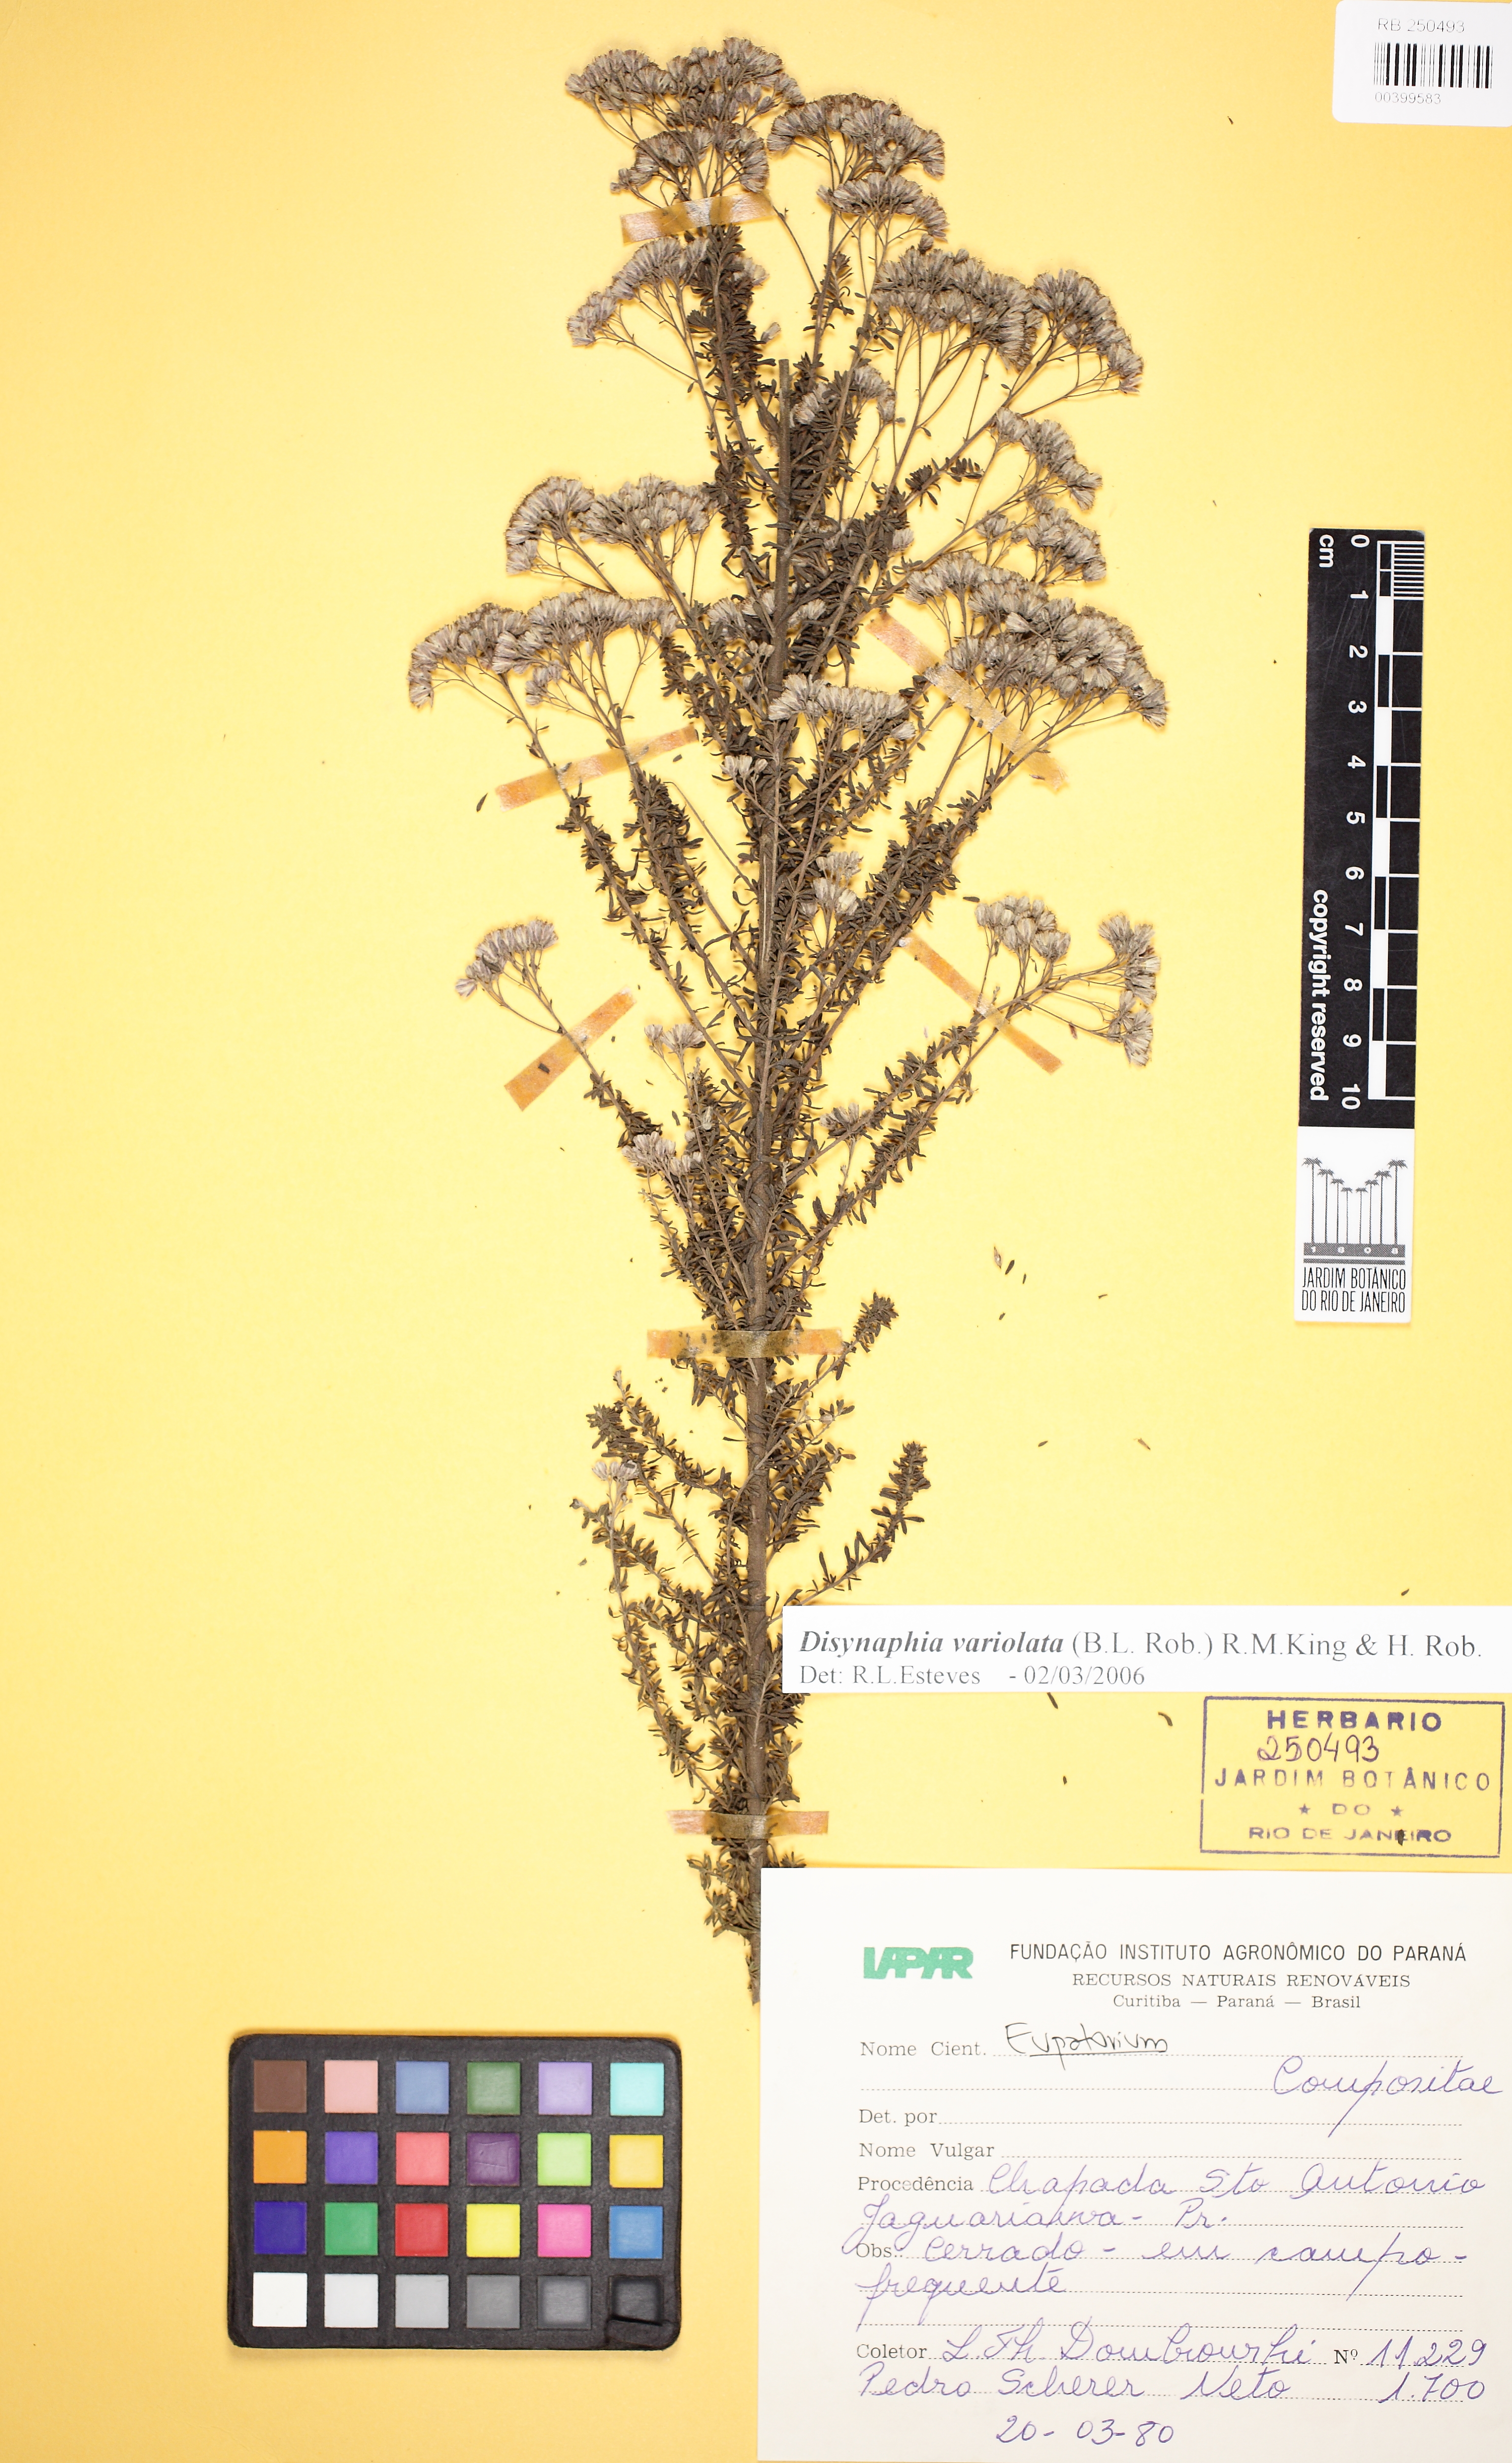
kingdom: Plantae
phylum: Tracheophyta
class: Magnoliopsida
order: Asterales
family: Asteraceae
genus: Disynaphia
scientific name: Disynaphia variolata
